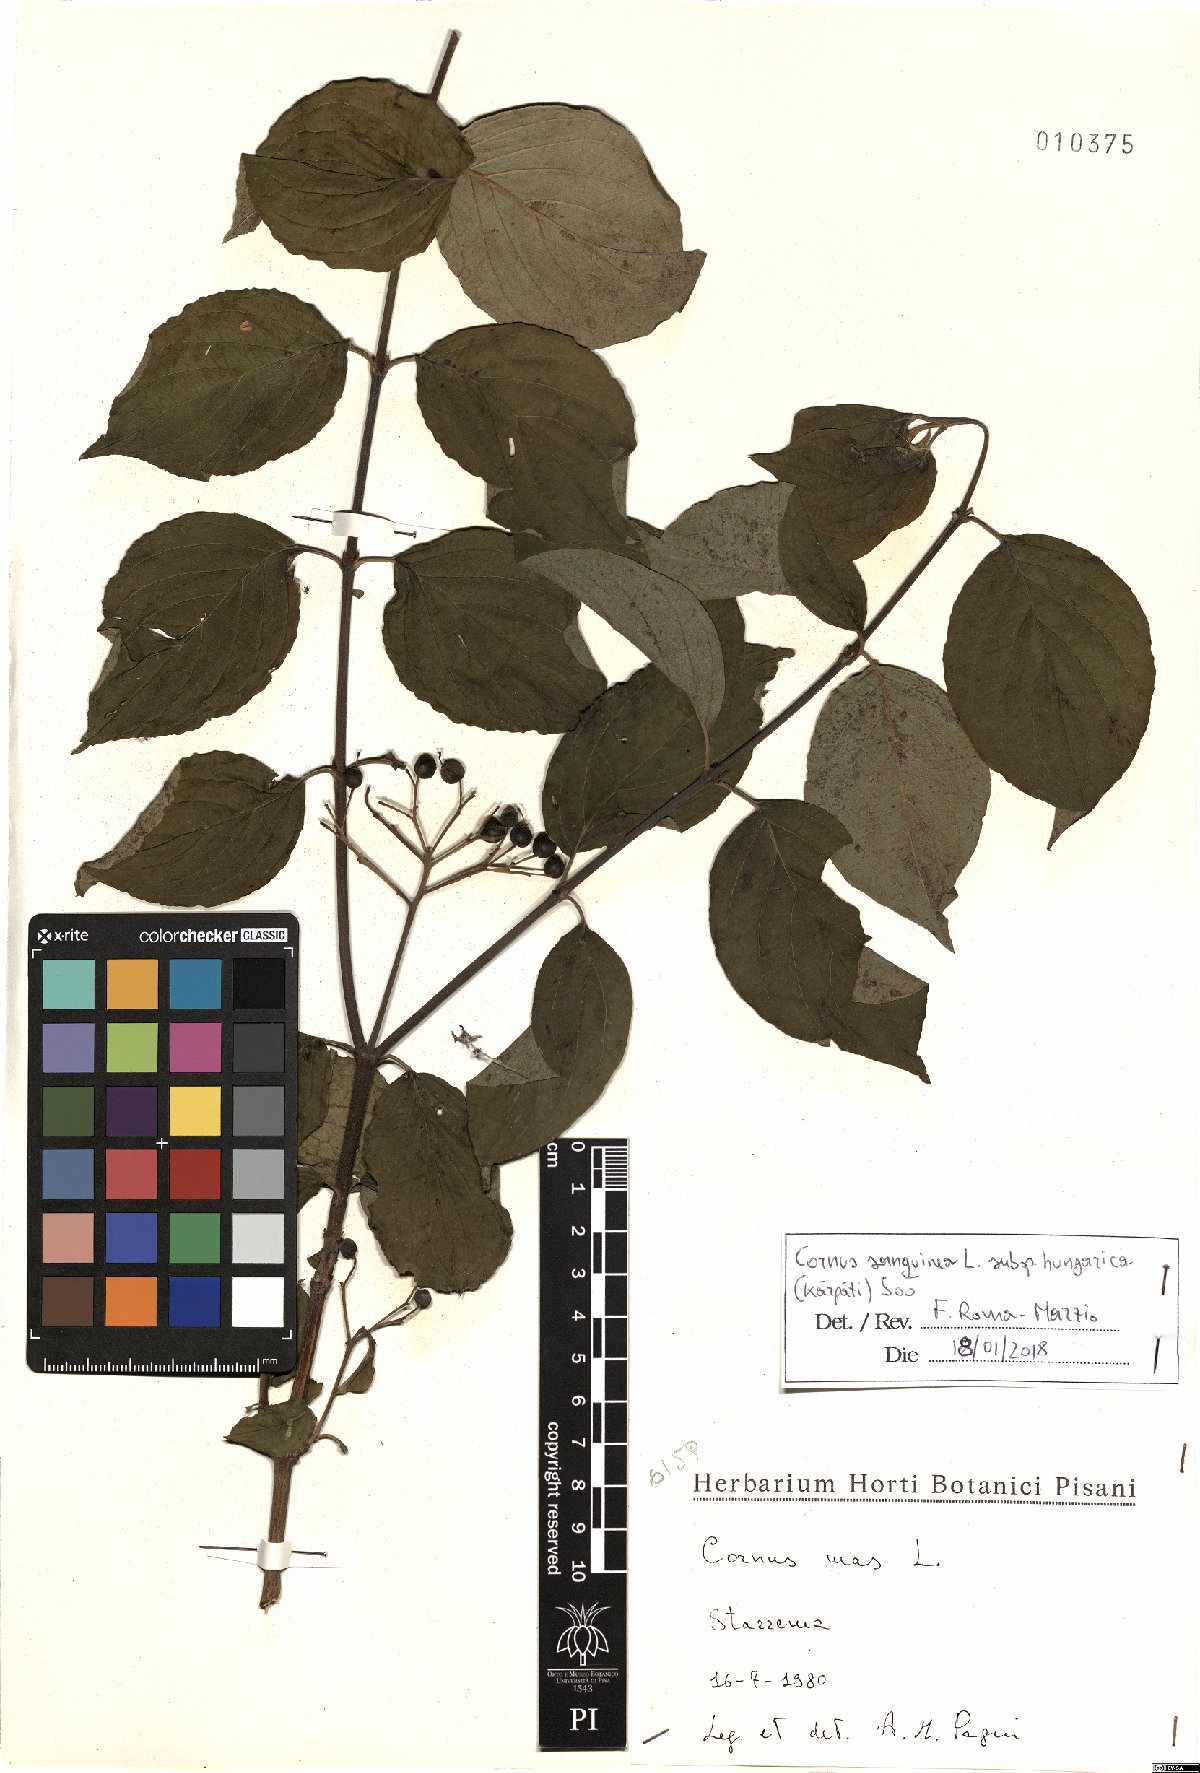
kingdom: Plantae
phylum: Tracheophyta
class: Magnoliopsida
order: Cornales
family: Cornaceae
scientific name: Cornaceae
